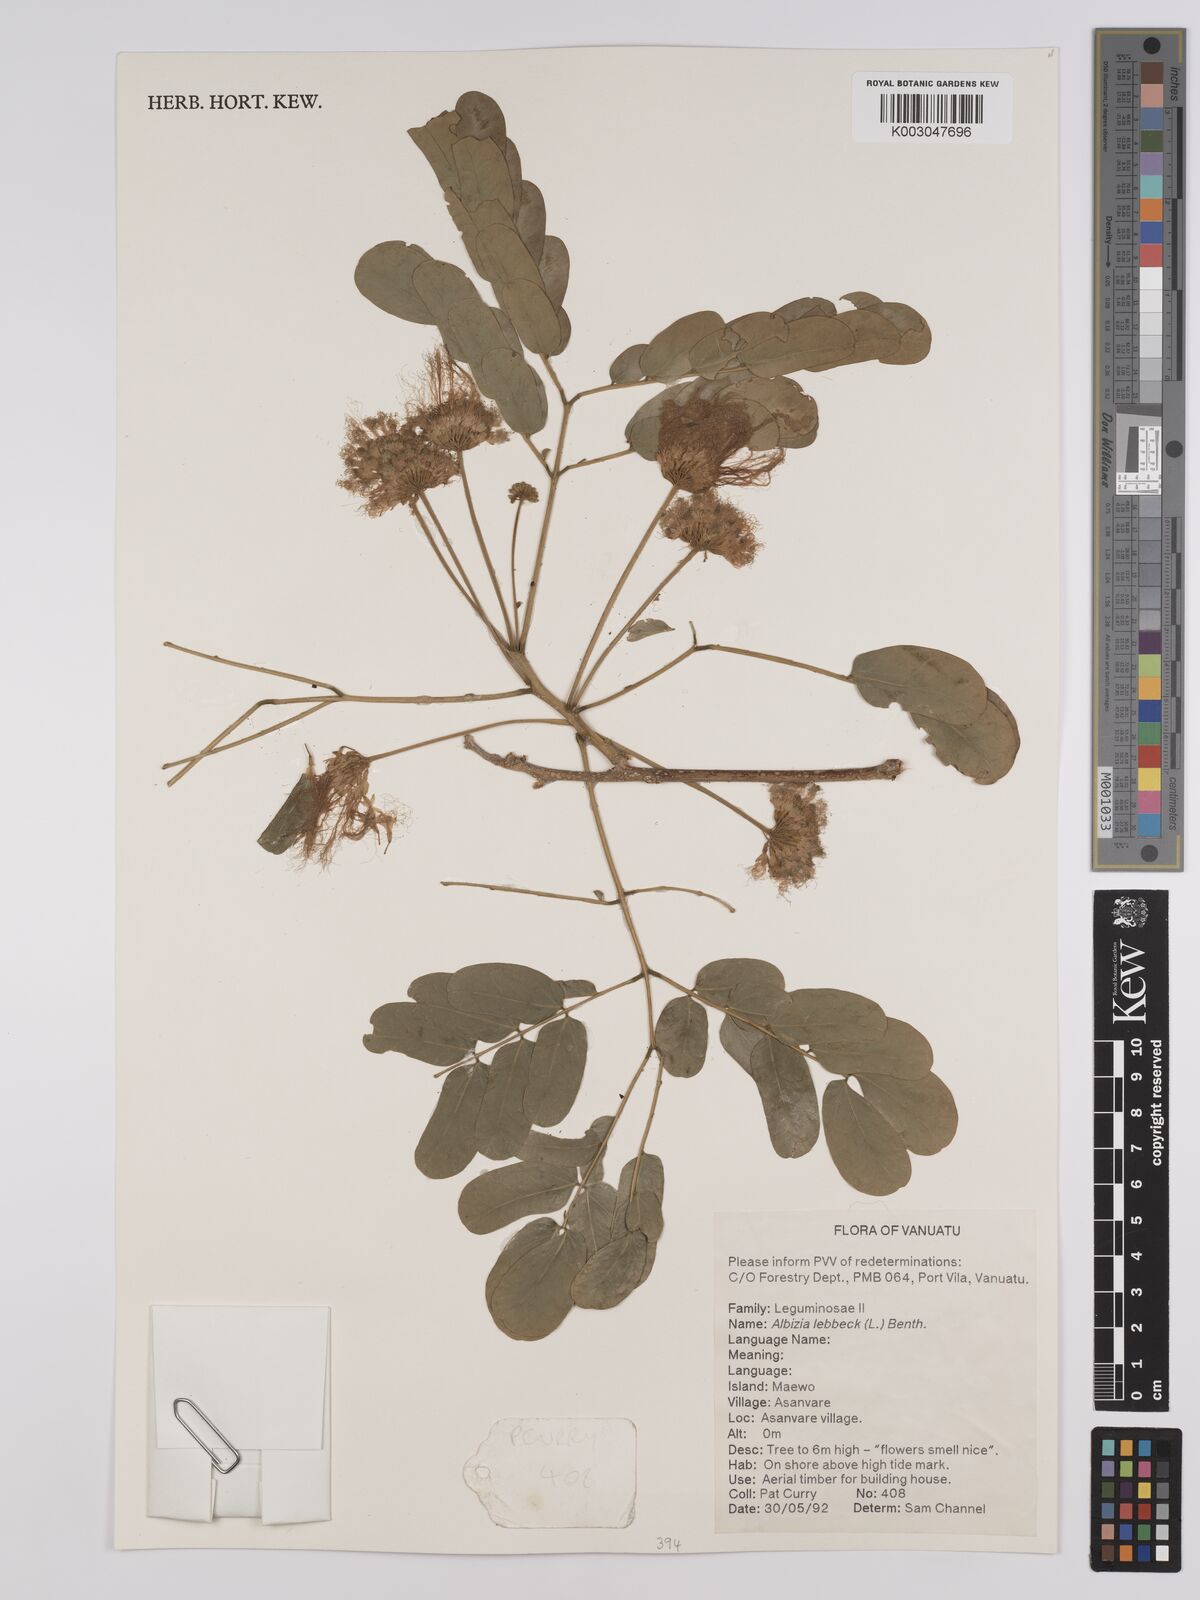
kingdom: Plantae
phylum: Tracheophyta
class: Magnoliopsida
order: Fabales
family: Fabaceae
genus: Albizia
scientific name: Albizia lebbeck
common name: Woman's tongue
